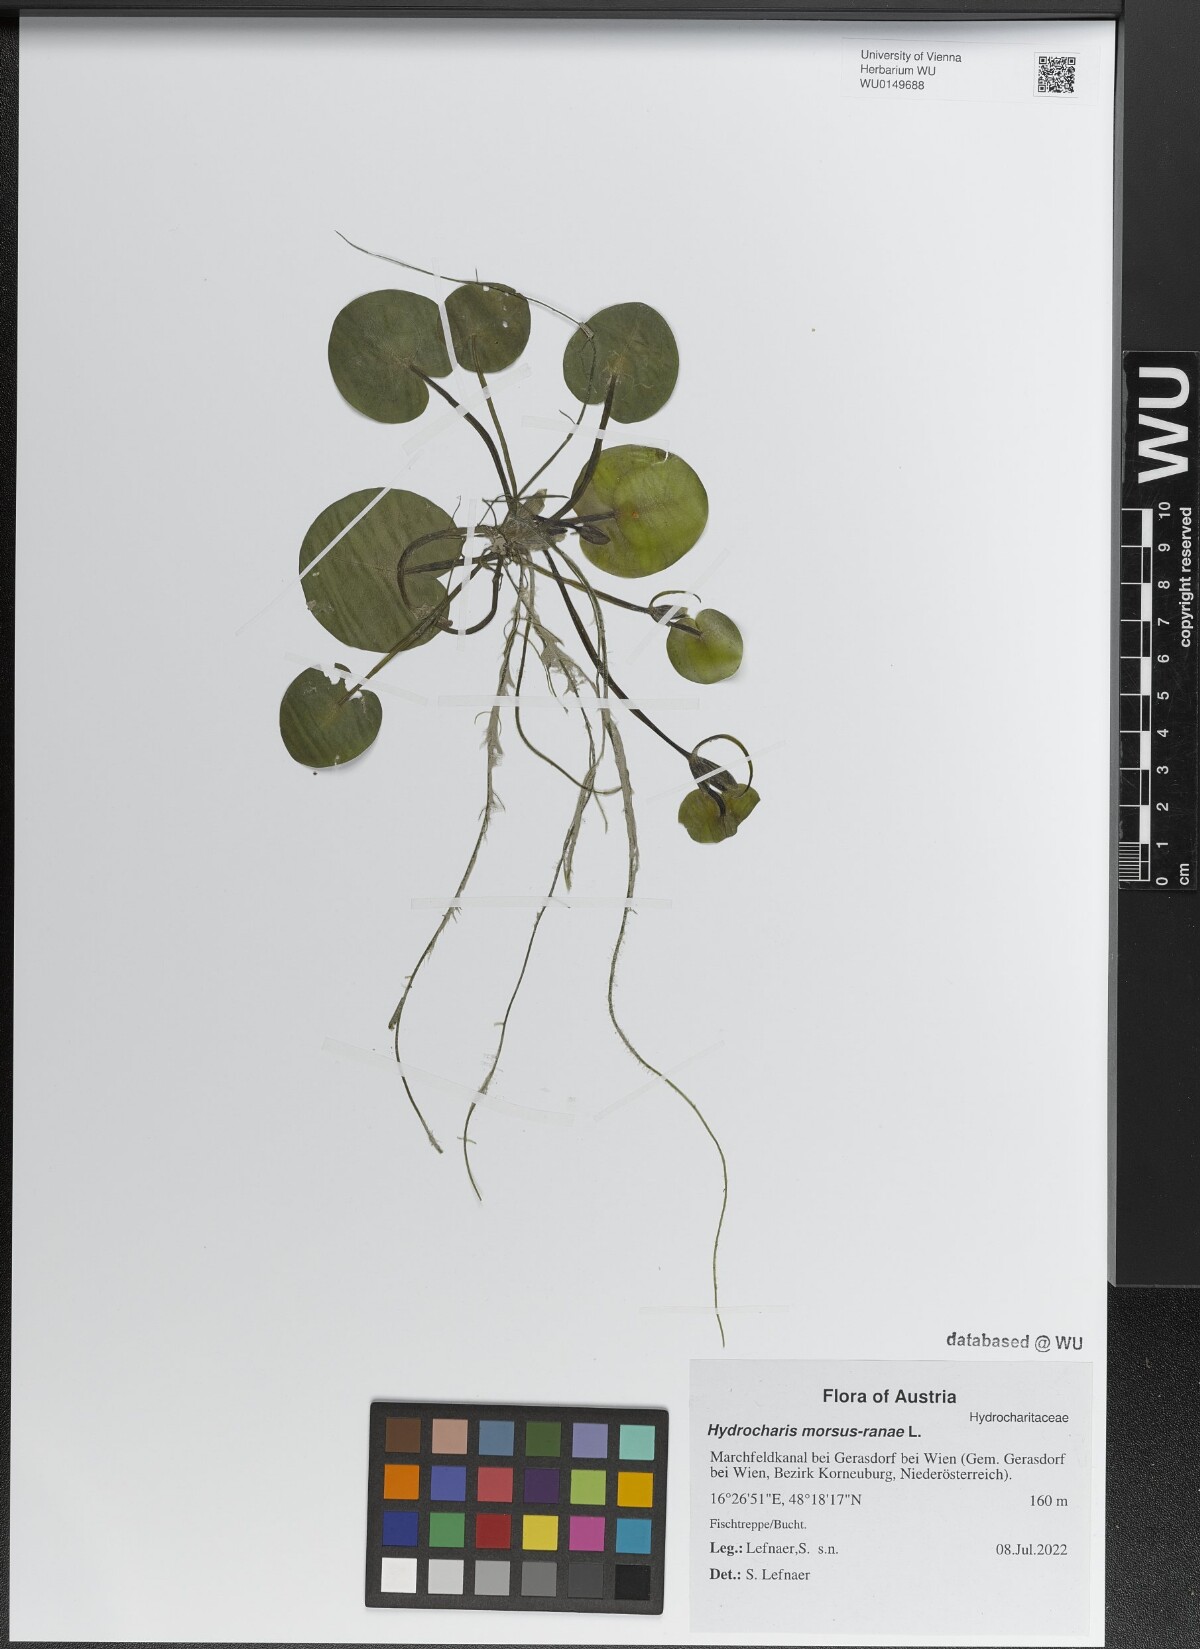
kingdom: Plantae
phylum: Tracheophyta
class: Liliopsida
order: Alismatales
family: Hydrocharitaceae
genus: Hydrocharis
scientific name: Hydrocharis morsus-ranae
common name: Frogbit
